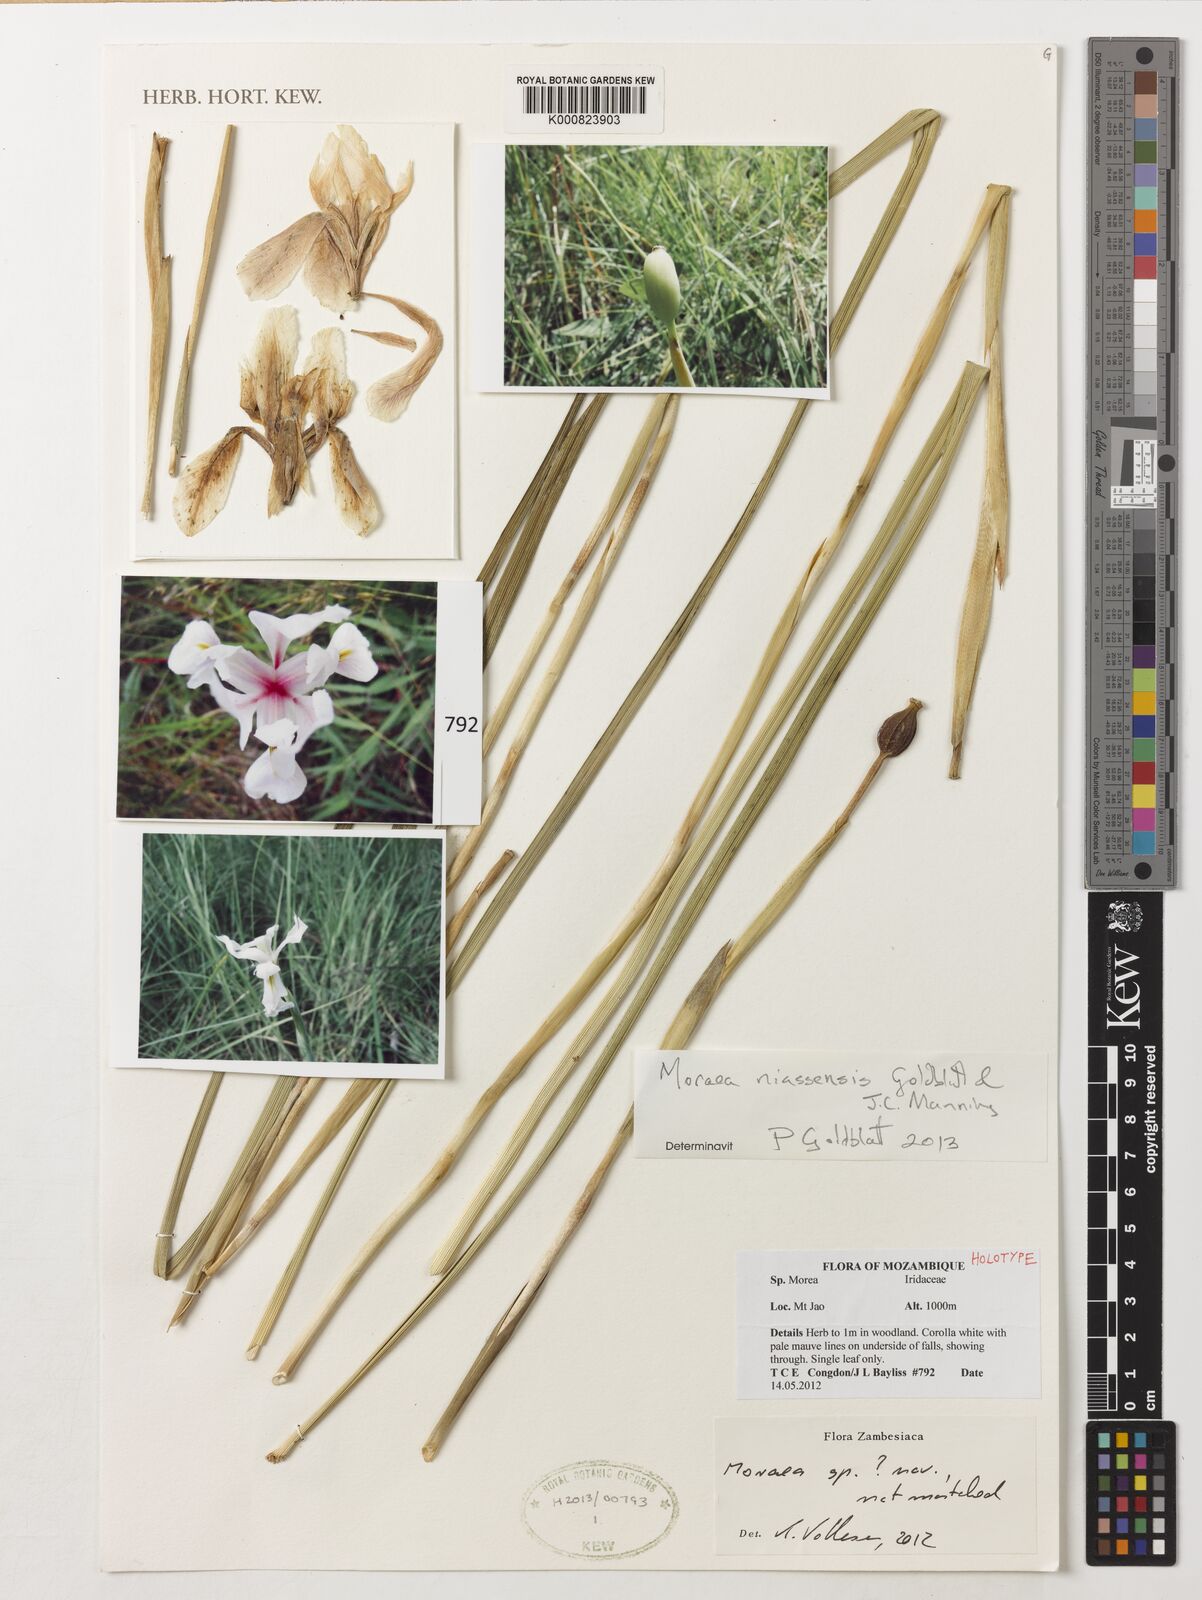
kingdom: Plantae
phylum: Tracheophyta
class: Liliopsida
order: Asparagales
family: Iridaceae
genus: Moraea
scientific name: Moraea niassensis
